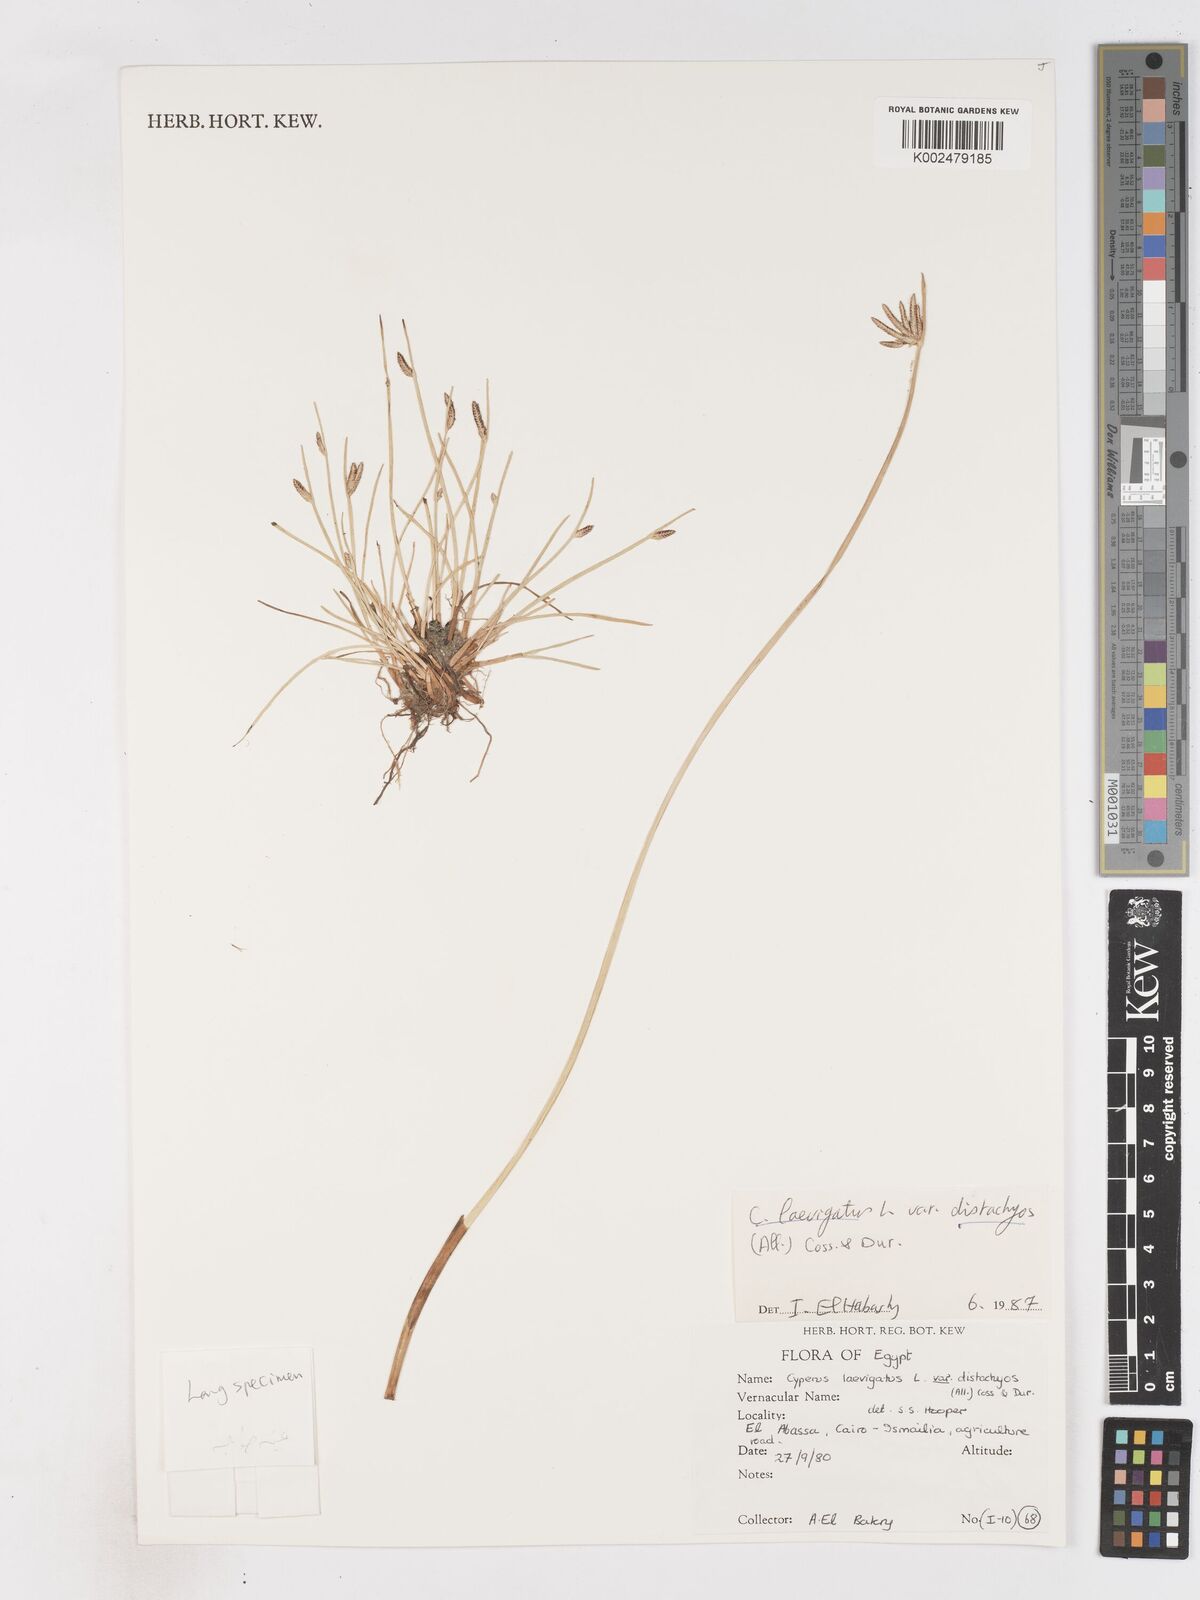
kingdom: Plantae
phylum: Tracheophyta
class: Liliopsida
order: Poales
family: Cyperaceae
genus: Cyperus
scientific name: Cyperus laevigatus
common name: Smooth flat sedge
